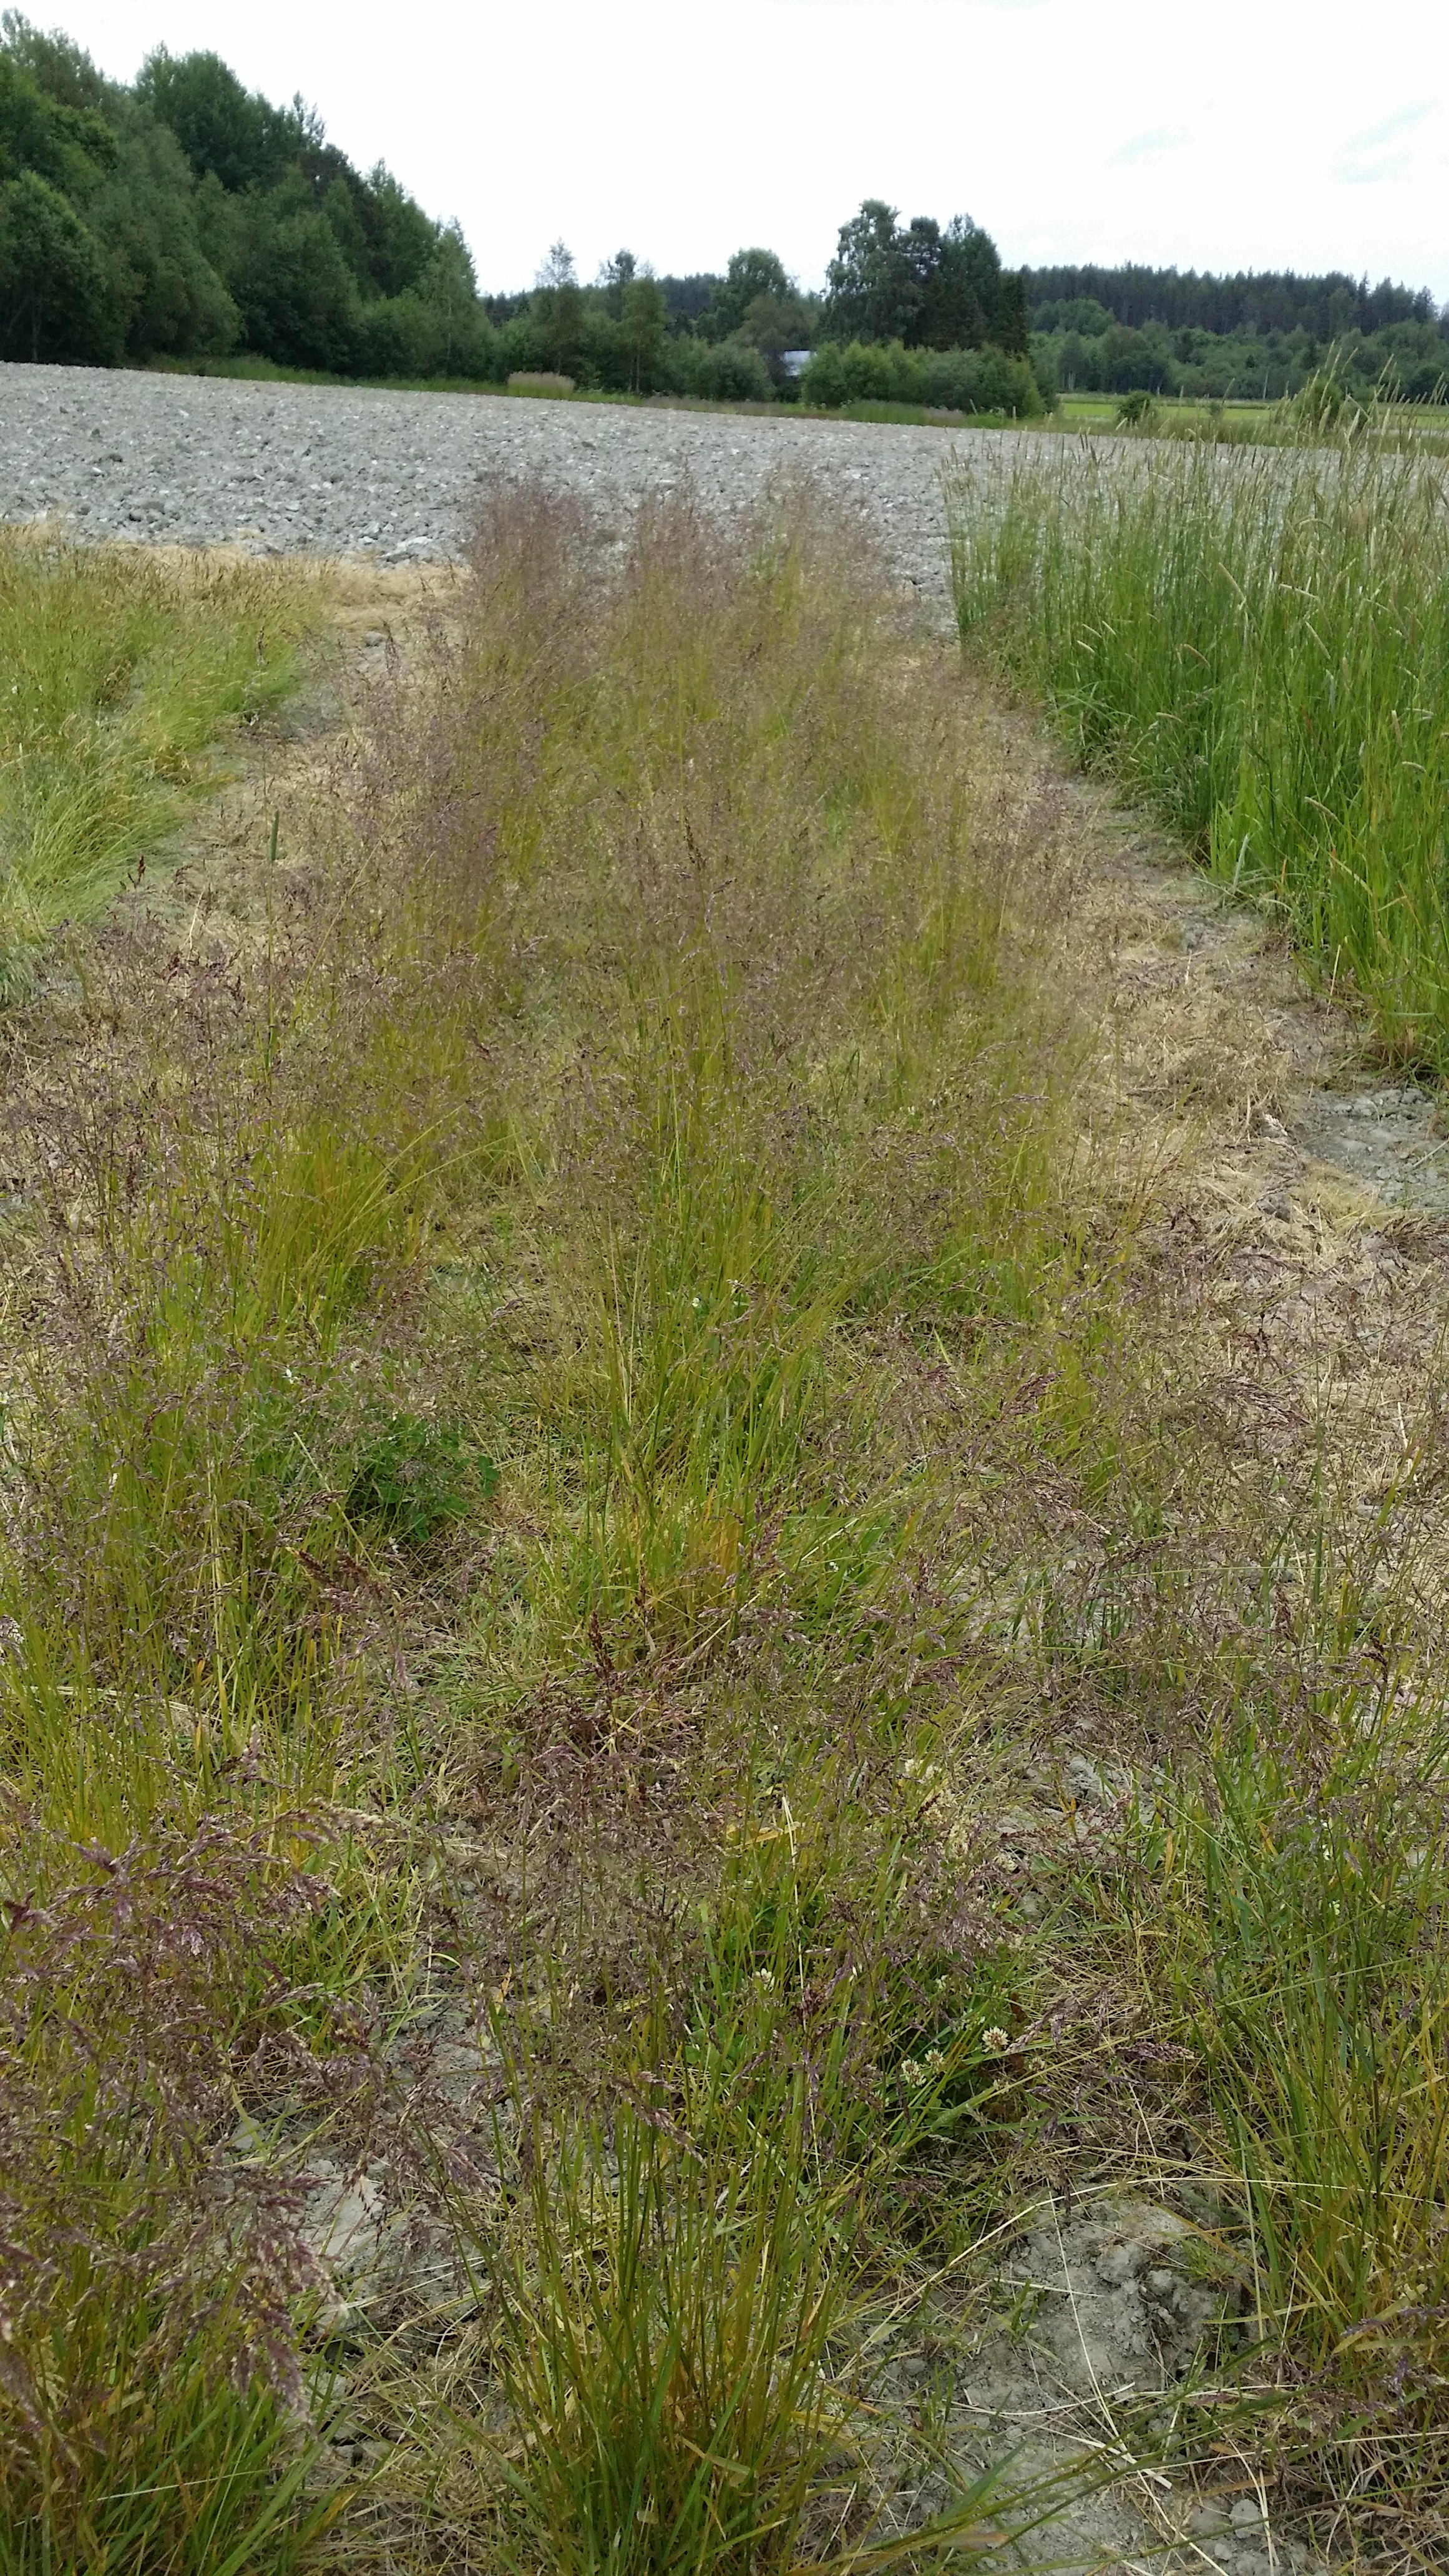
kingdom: Plantae
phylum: Tracheophyta
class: Liliopsida
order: Poales
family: Poaceae
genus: Poa
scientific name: Poa pratensis
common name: Kentucky bluegrass
